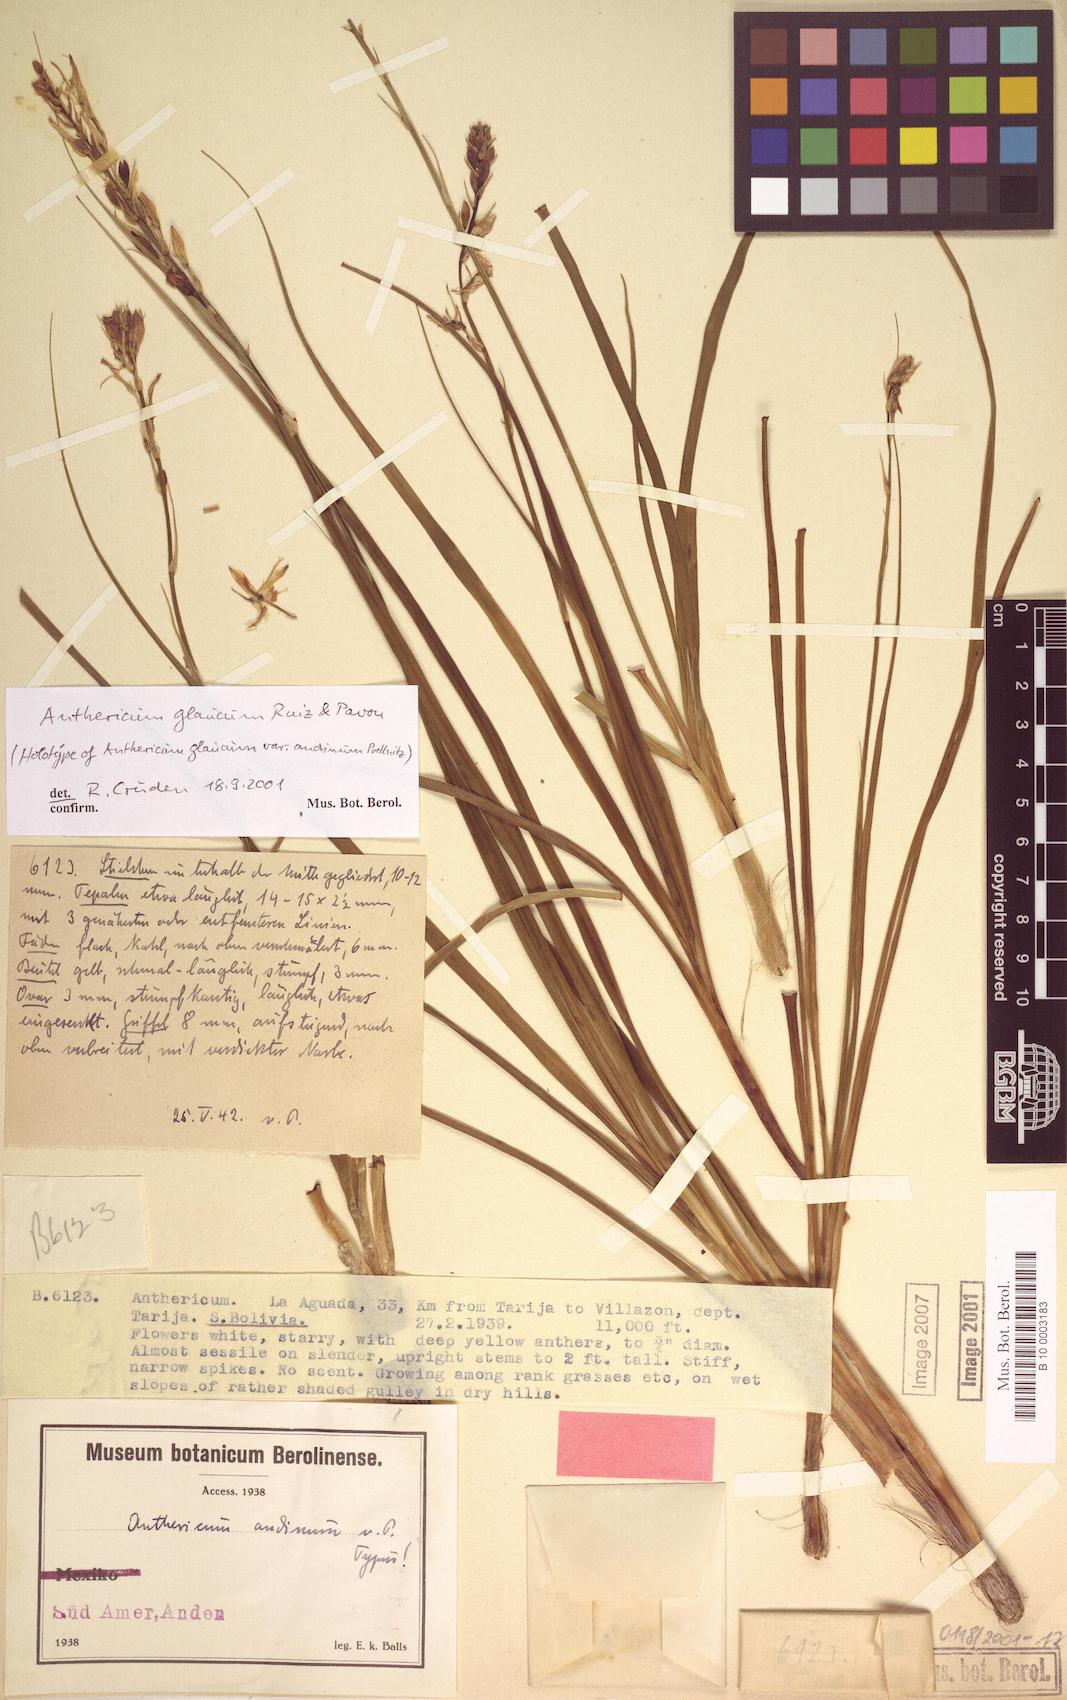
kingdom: Plantae
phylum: Tracheophyta
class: Liliopsida
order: Asparagales
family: Asparagaceae
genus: Trihesperus
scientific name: Trihesperus glaucus
